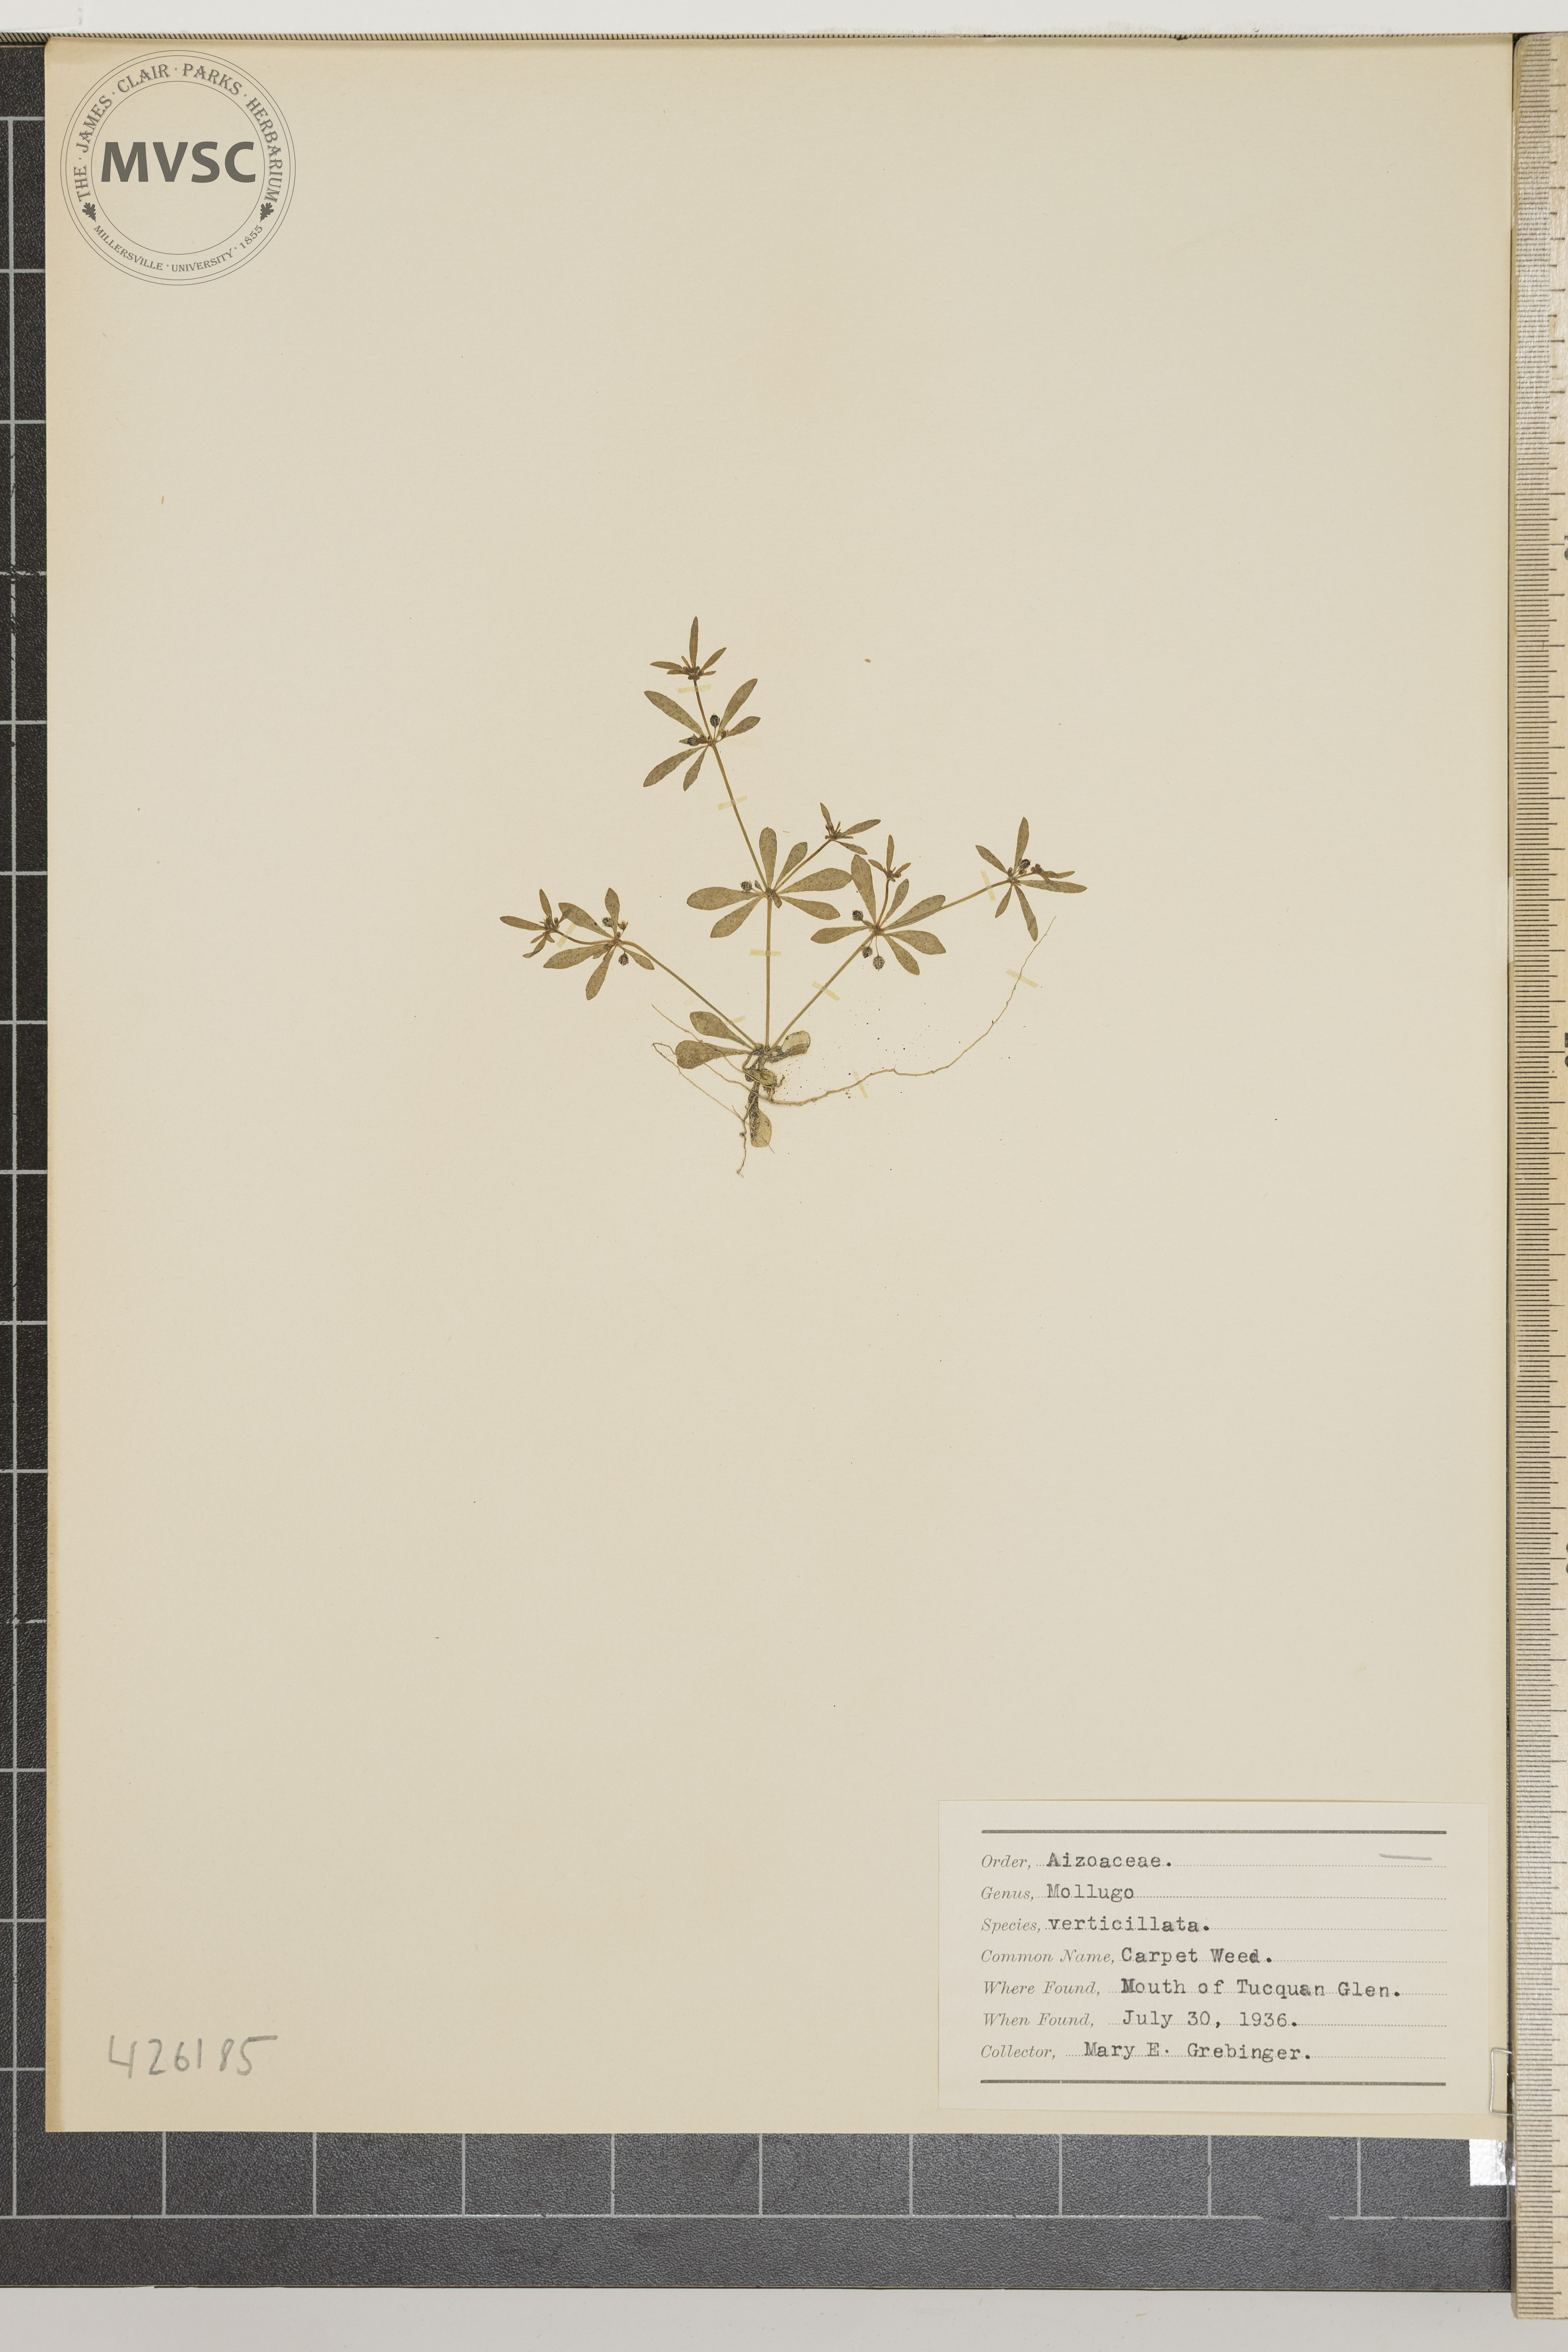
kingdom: Plantae
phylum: Tracheophyta
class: Magnoliopsida
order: Caryophyllales
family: Molluginaceae
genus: Mollugo
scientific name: Mollugo verticillata
